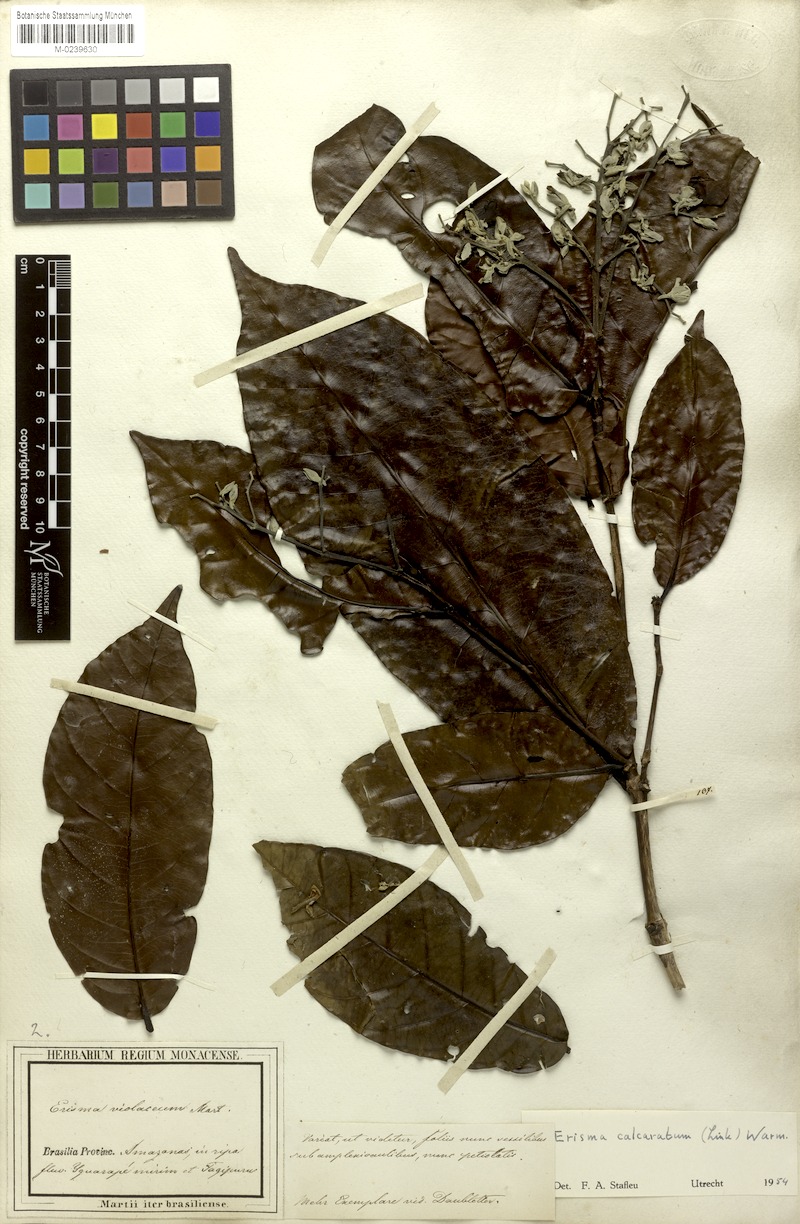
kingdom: Plantae
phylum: Tracheophyta
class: Magnoliopsida
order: Myrtales
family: Vochysiaceae
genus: Erisma
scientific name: Erisma calcaratum
